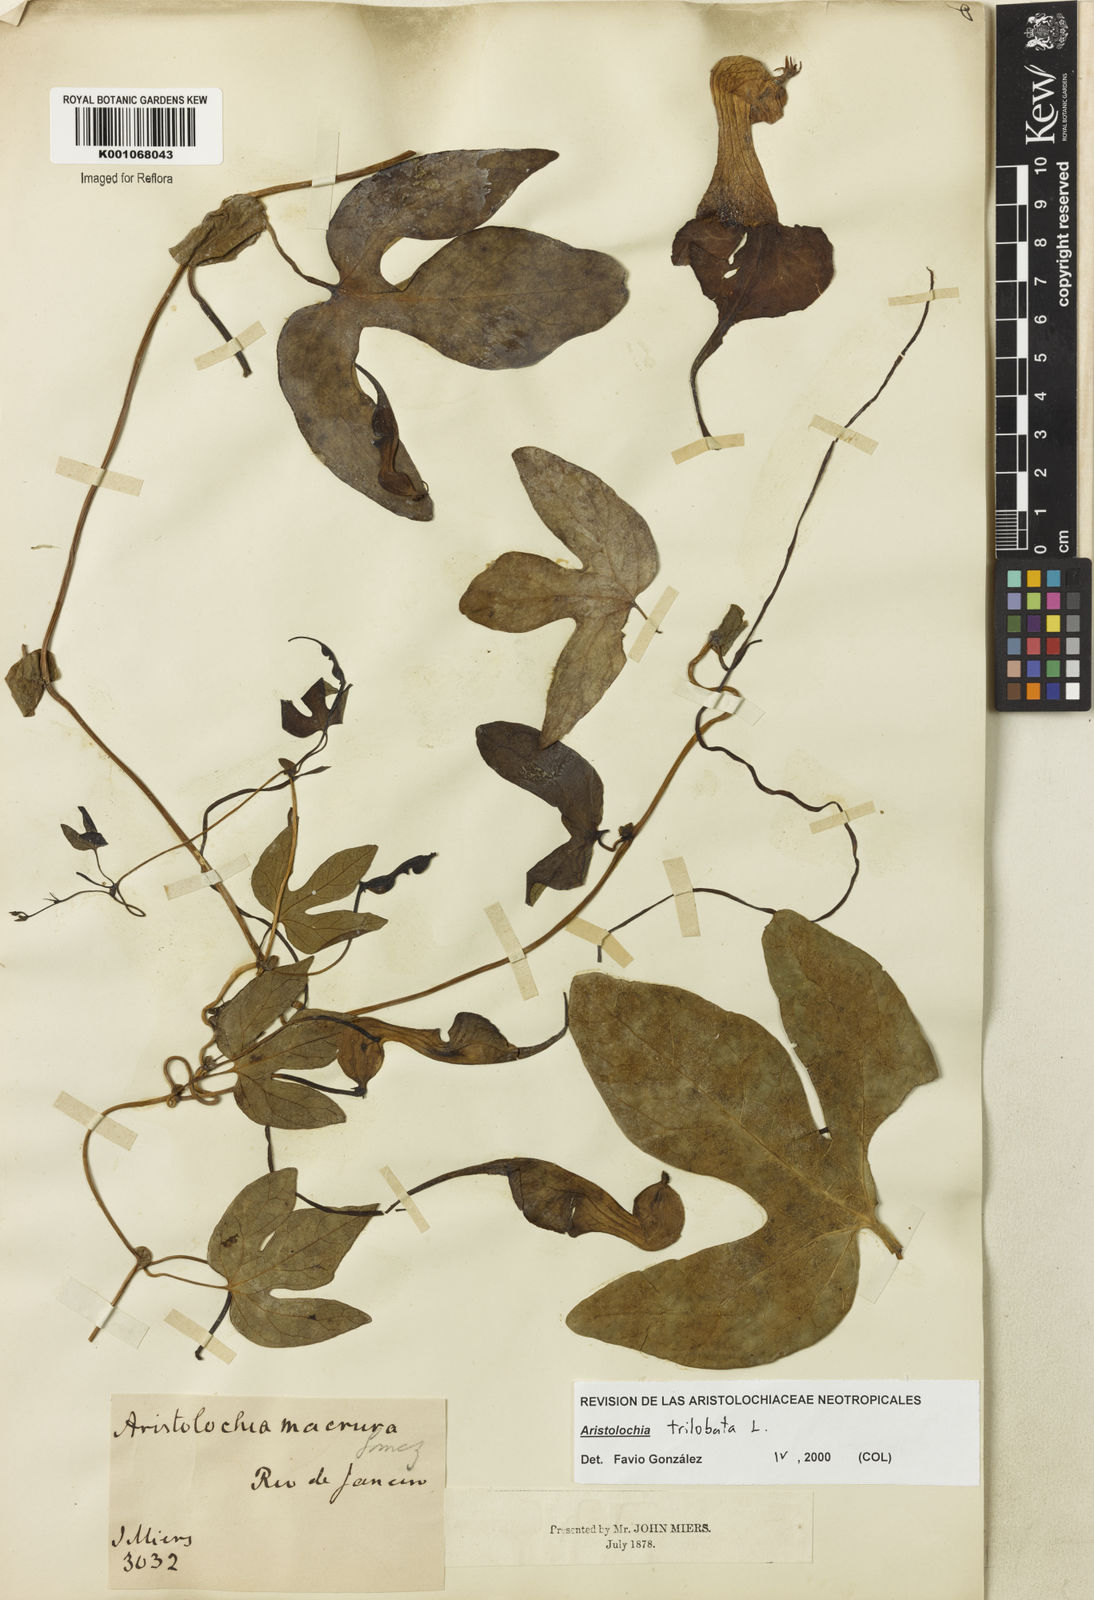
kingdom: Plantae
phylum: Tracheophyta
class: Magnoliopsida
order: Piperales
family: Aristolochiaceae
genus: Aristolochia
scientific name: Aristolochia trilobata
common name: Dutchman's pipe
